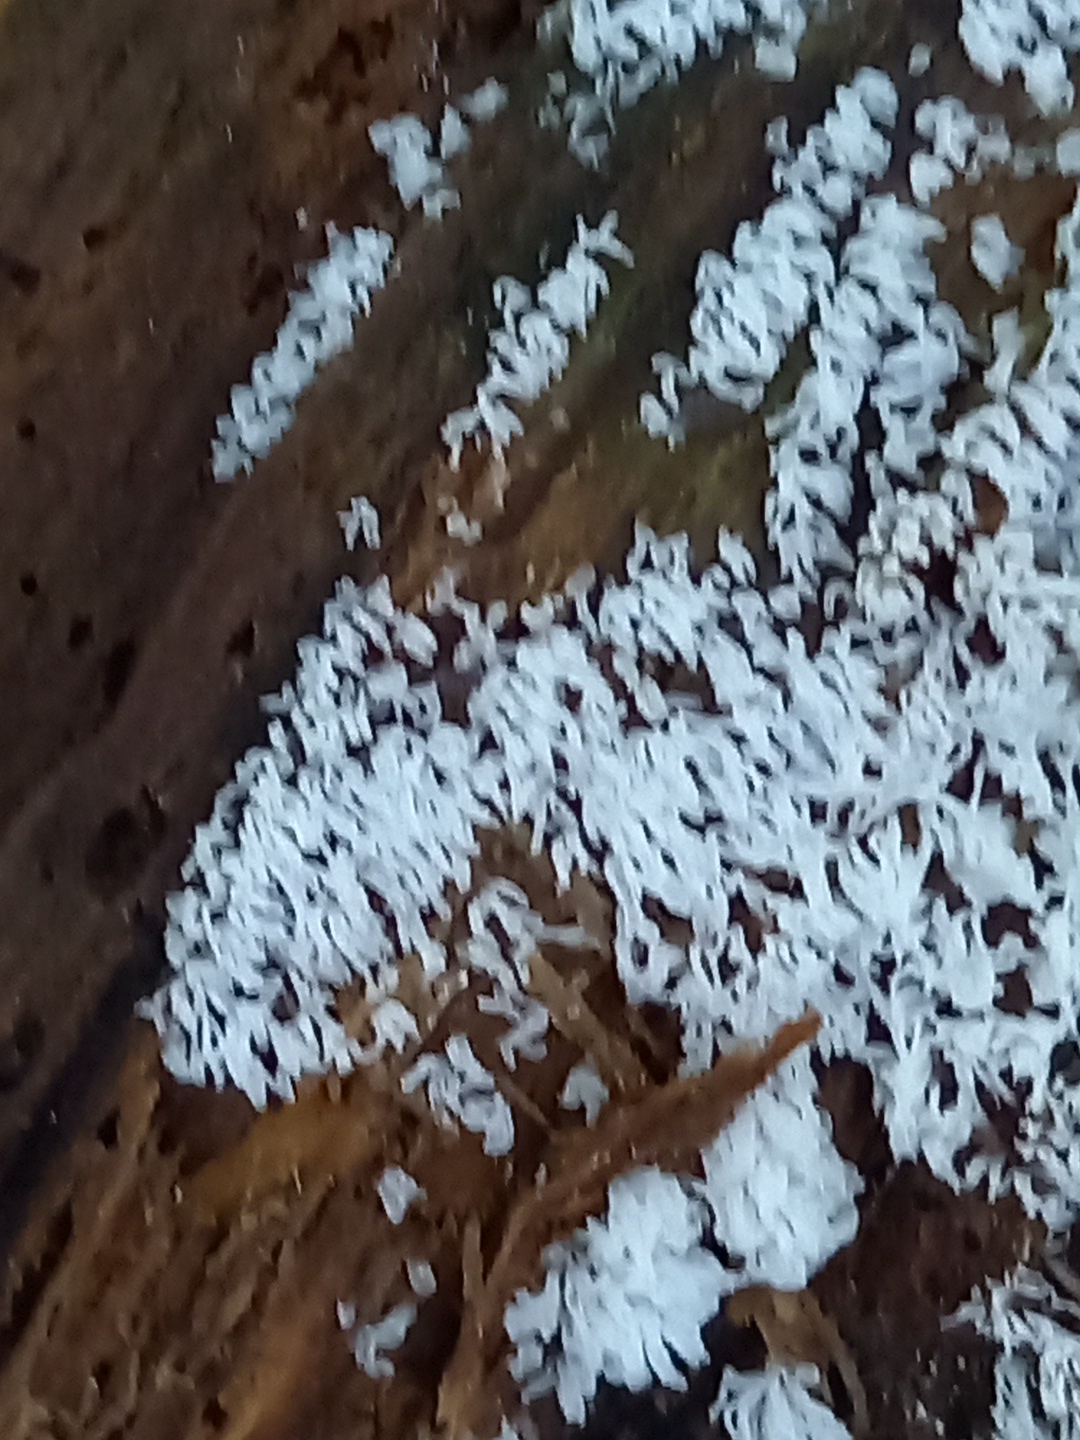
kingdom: Protozoa
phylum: Mycetozoa
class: Protosteliomycetes
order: Ceratiomyxales
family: Ceratiomyxaceae
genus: Ceratiomyxa
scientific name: Ceratiomyxa fruticulosa
